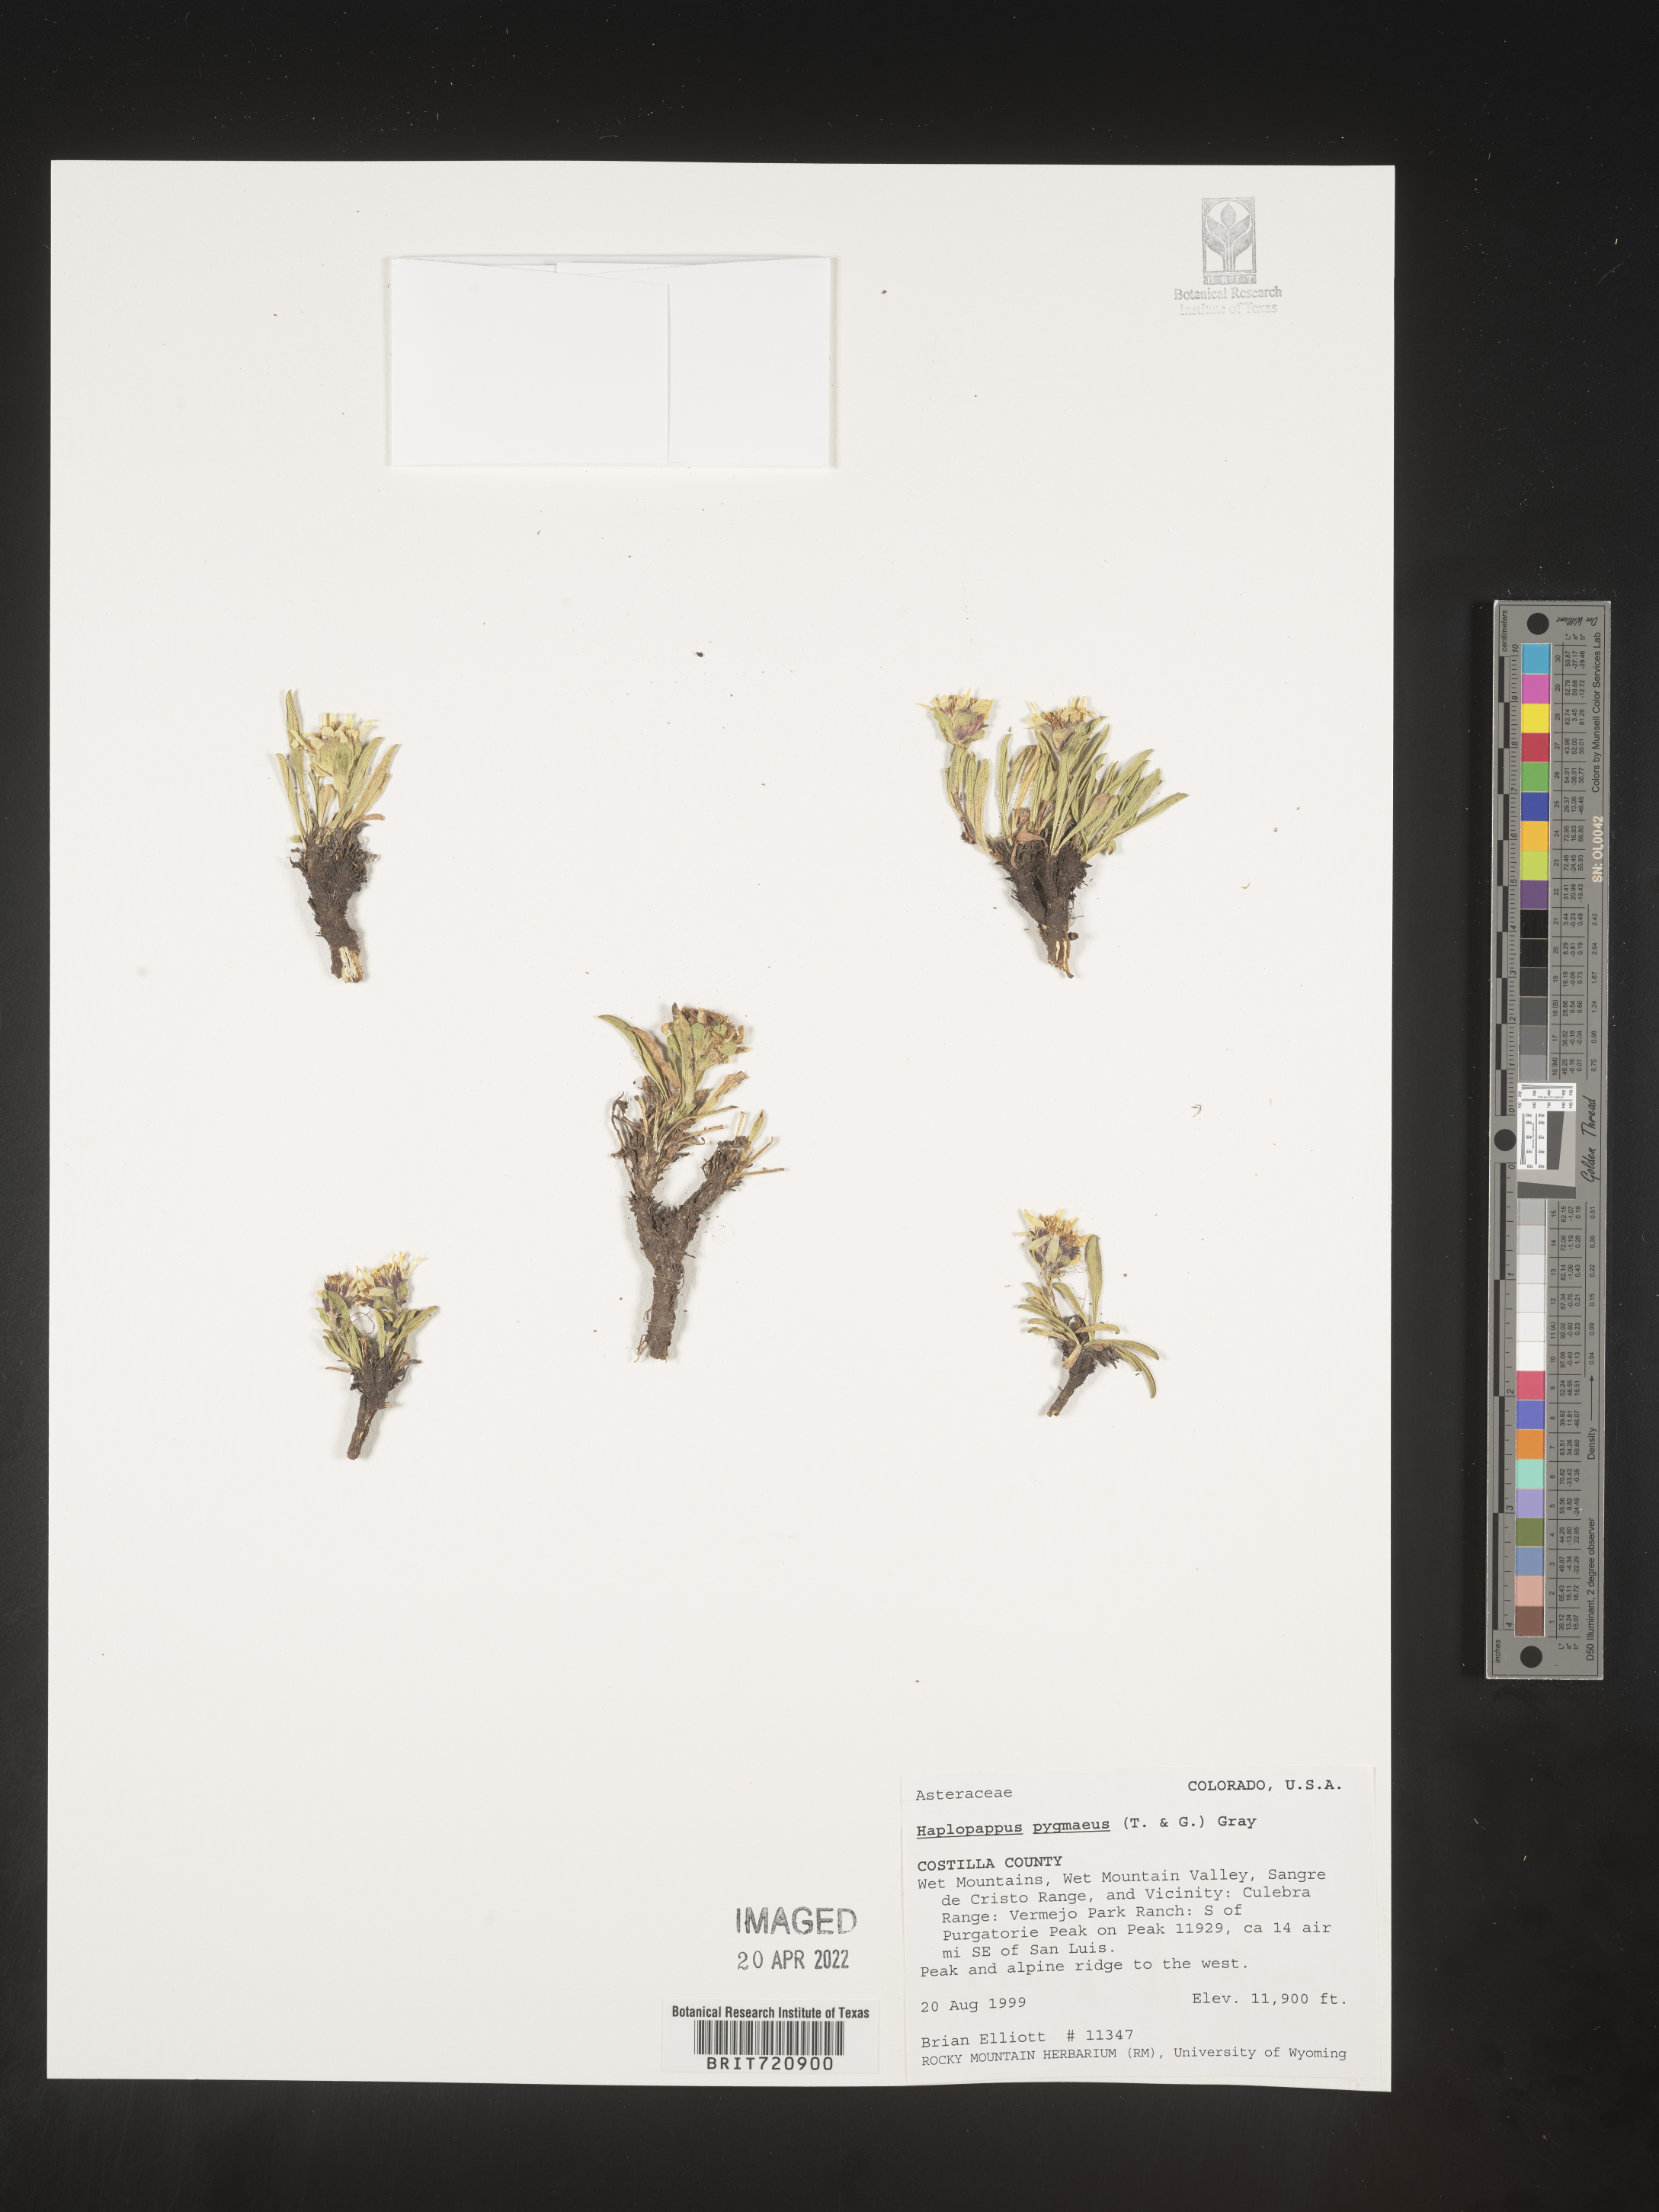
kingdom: Plantae
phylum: Tracheophyta
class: Magnoliopsida
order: Asterales
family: Asteraceae
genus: Haplopappus
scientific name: Haplopappus
